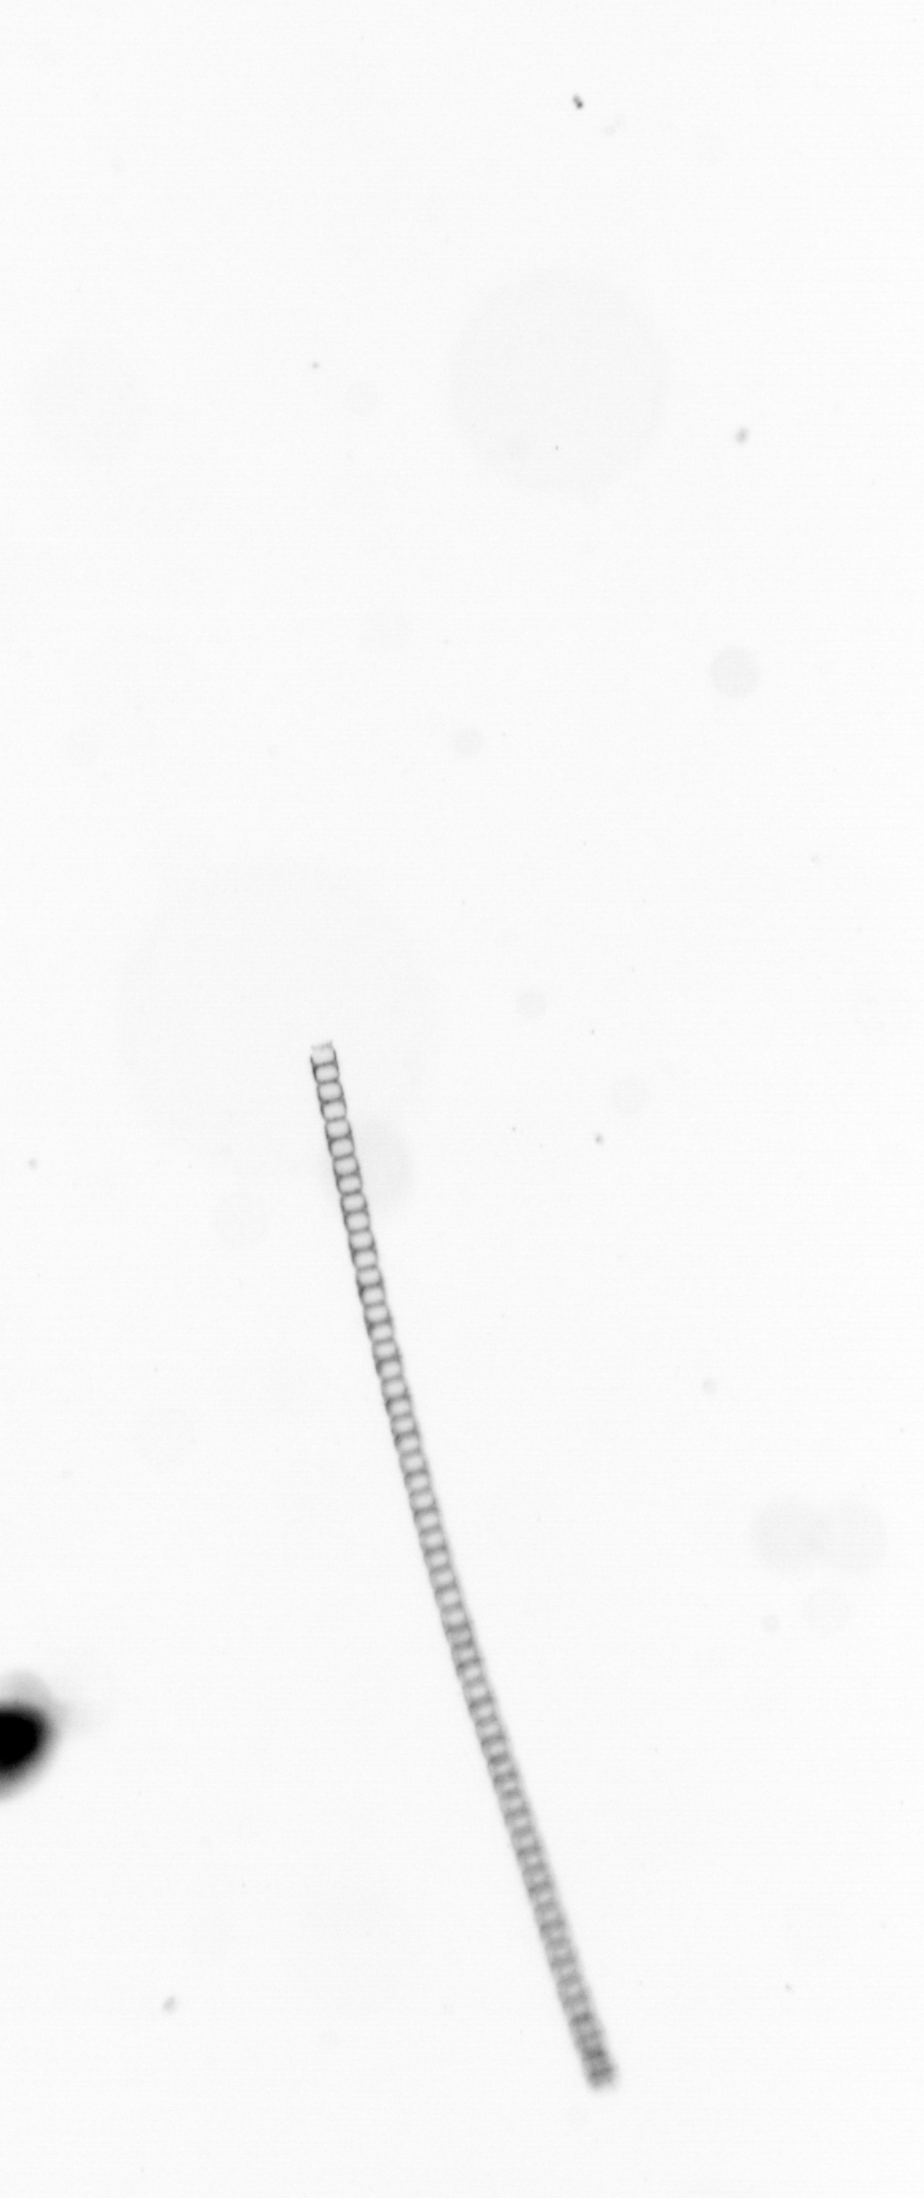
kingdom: Chromista
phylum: Ochrophyta
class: Bacillariophyceae
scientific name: Bacillariophyceae
